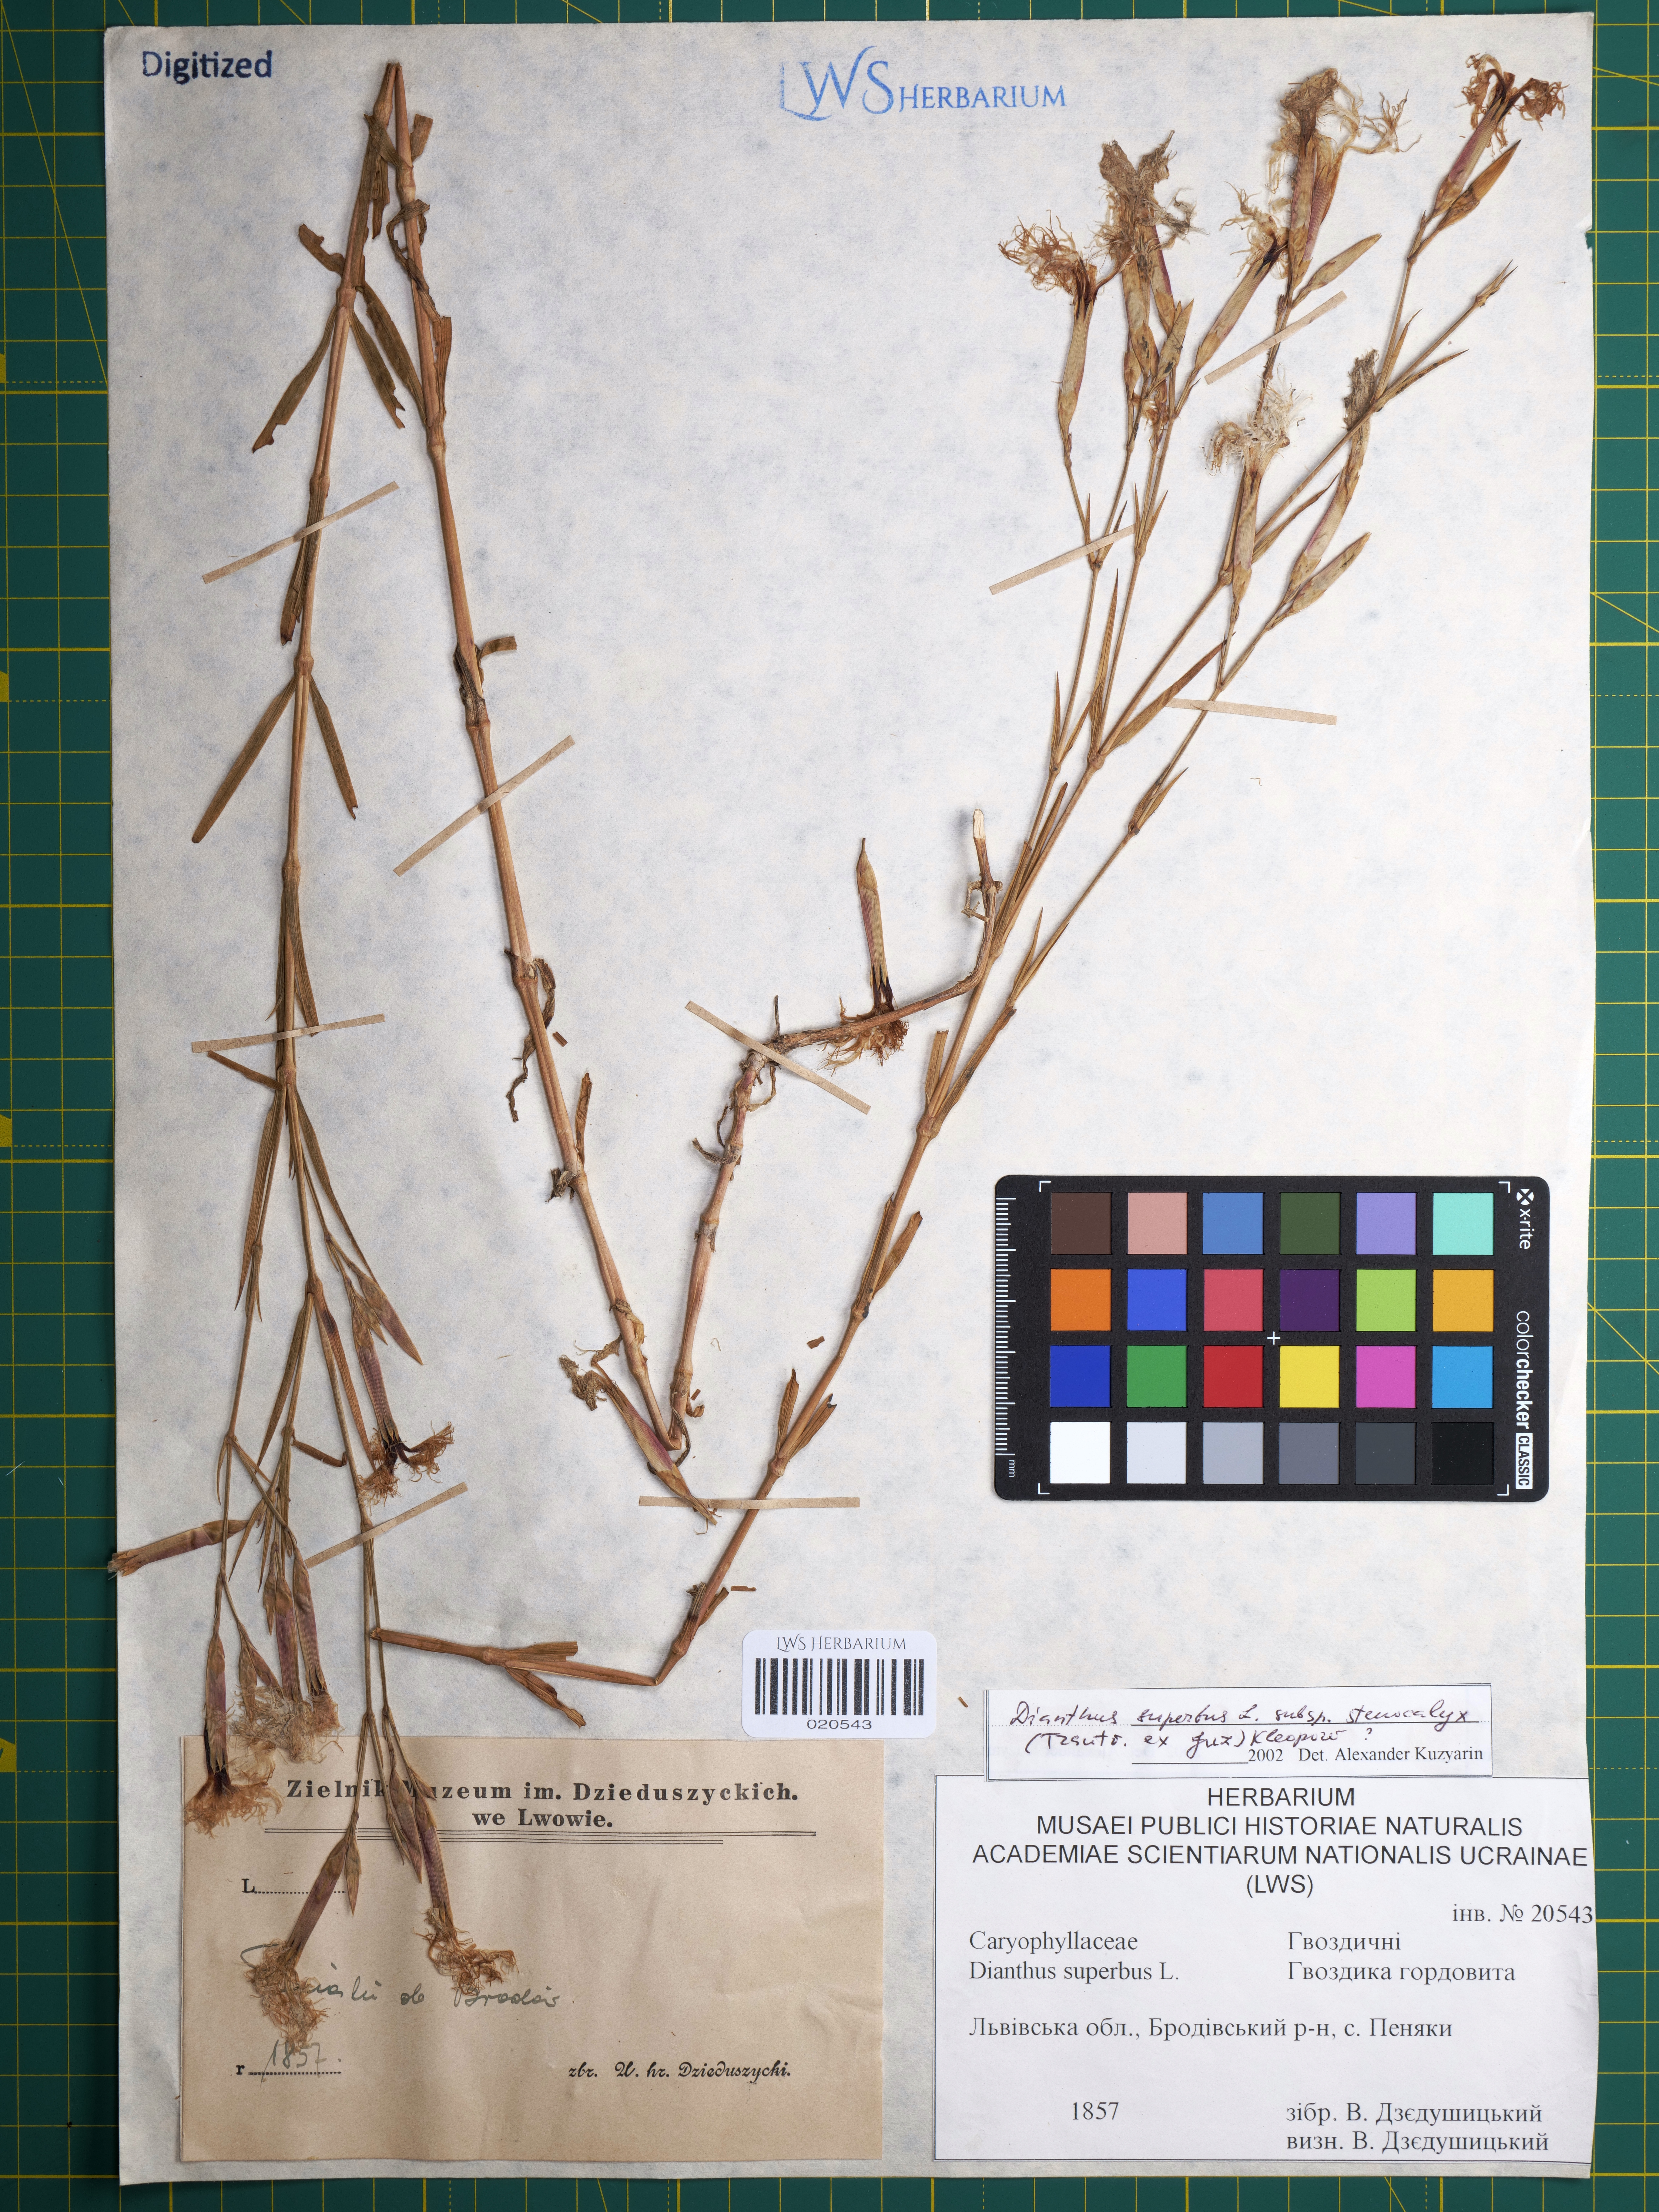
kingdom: Plantae
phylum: Tracheophyta
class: Magnoliopsida
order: Caryophyllales
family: Caryophyllaceae
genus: Dianthus
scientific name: Dianthus superbus
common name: Fringed pink
